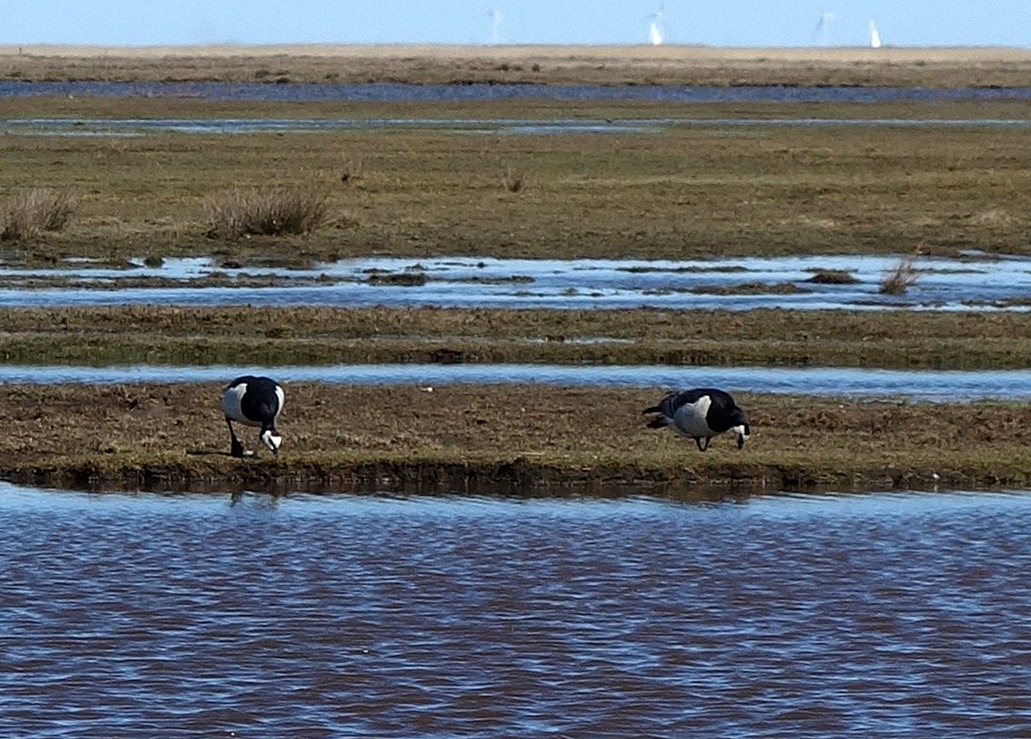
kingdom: Animalia
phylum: Chordata
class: Aves
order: Anseriformes
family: Anatidae
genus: Branta
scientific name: Branta leucopsis
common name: Bramgås
